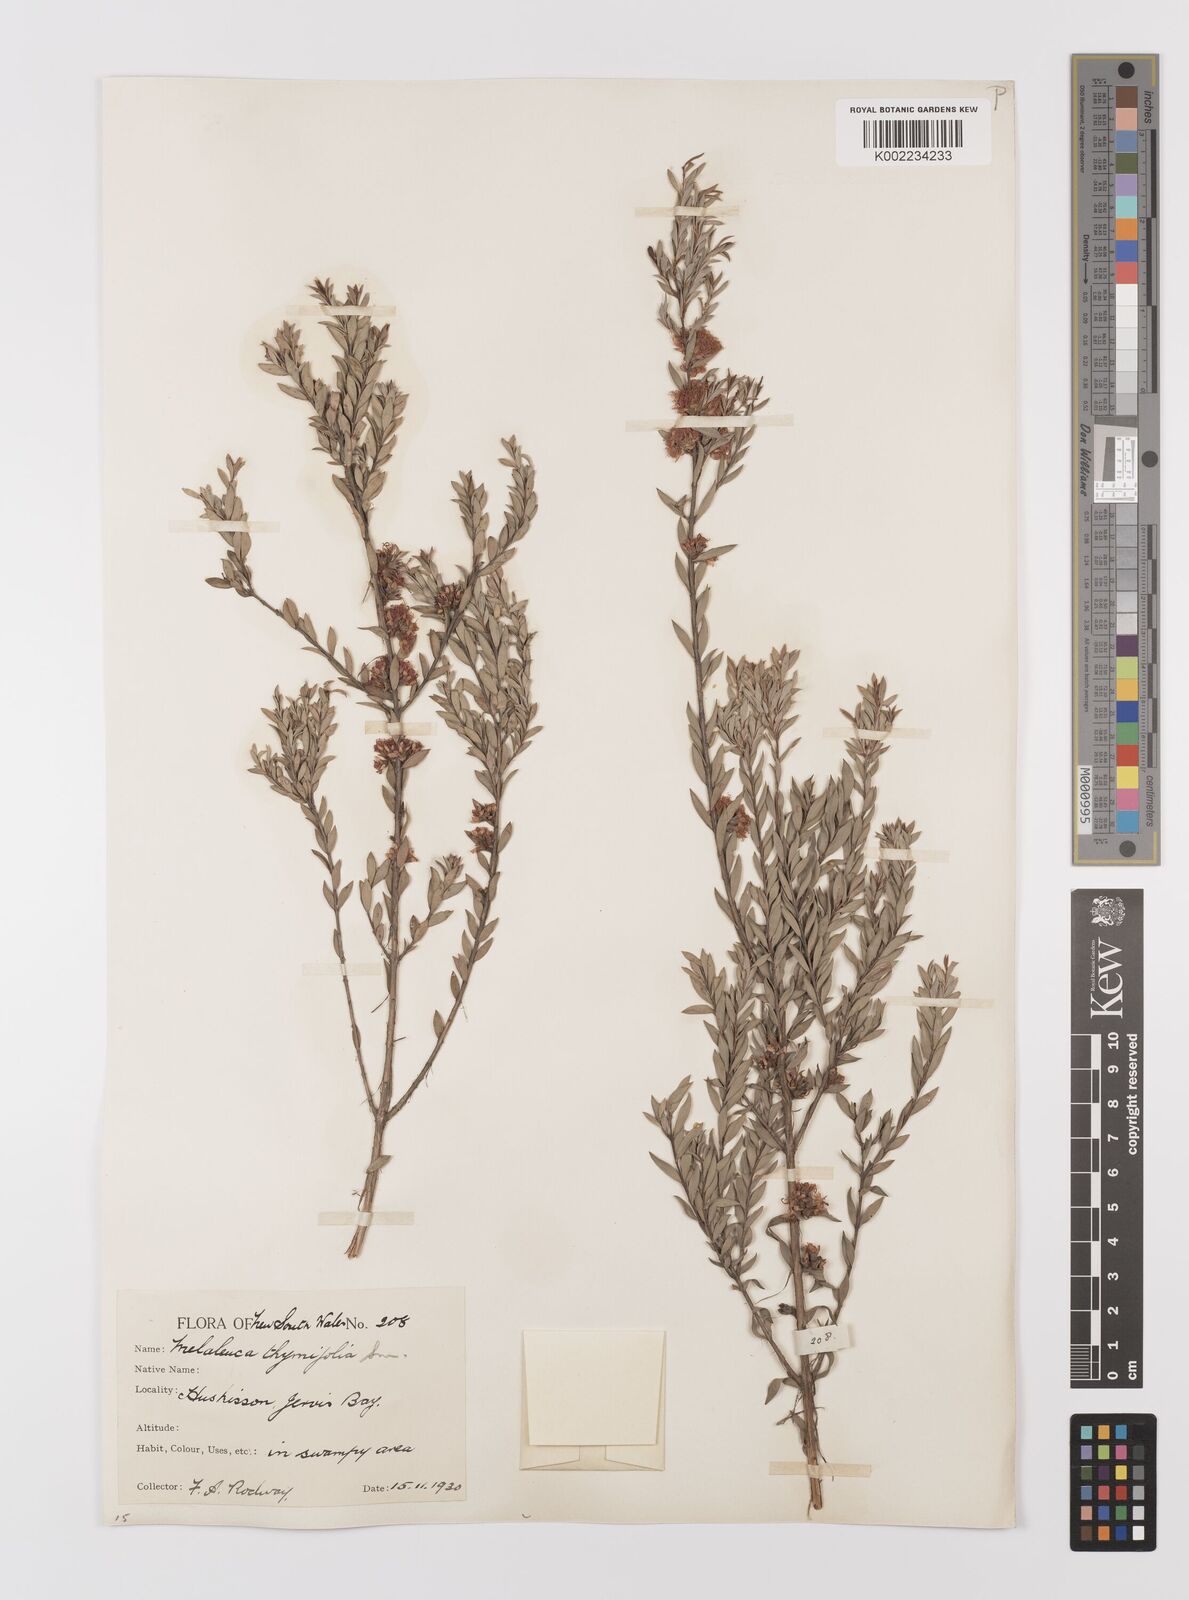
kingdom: Plantae
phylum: Tracheophyta
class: Magnoliopsida
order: Myrtales
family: Myrtaceae
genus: Melaleuca
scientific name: Melaleuca thymifolia
